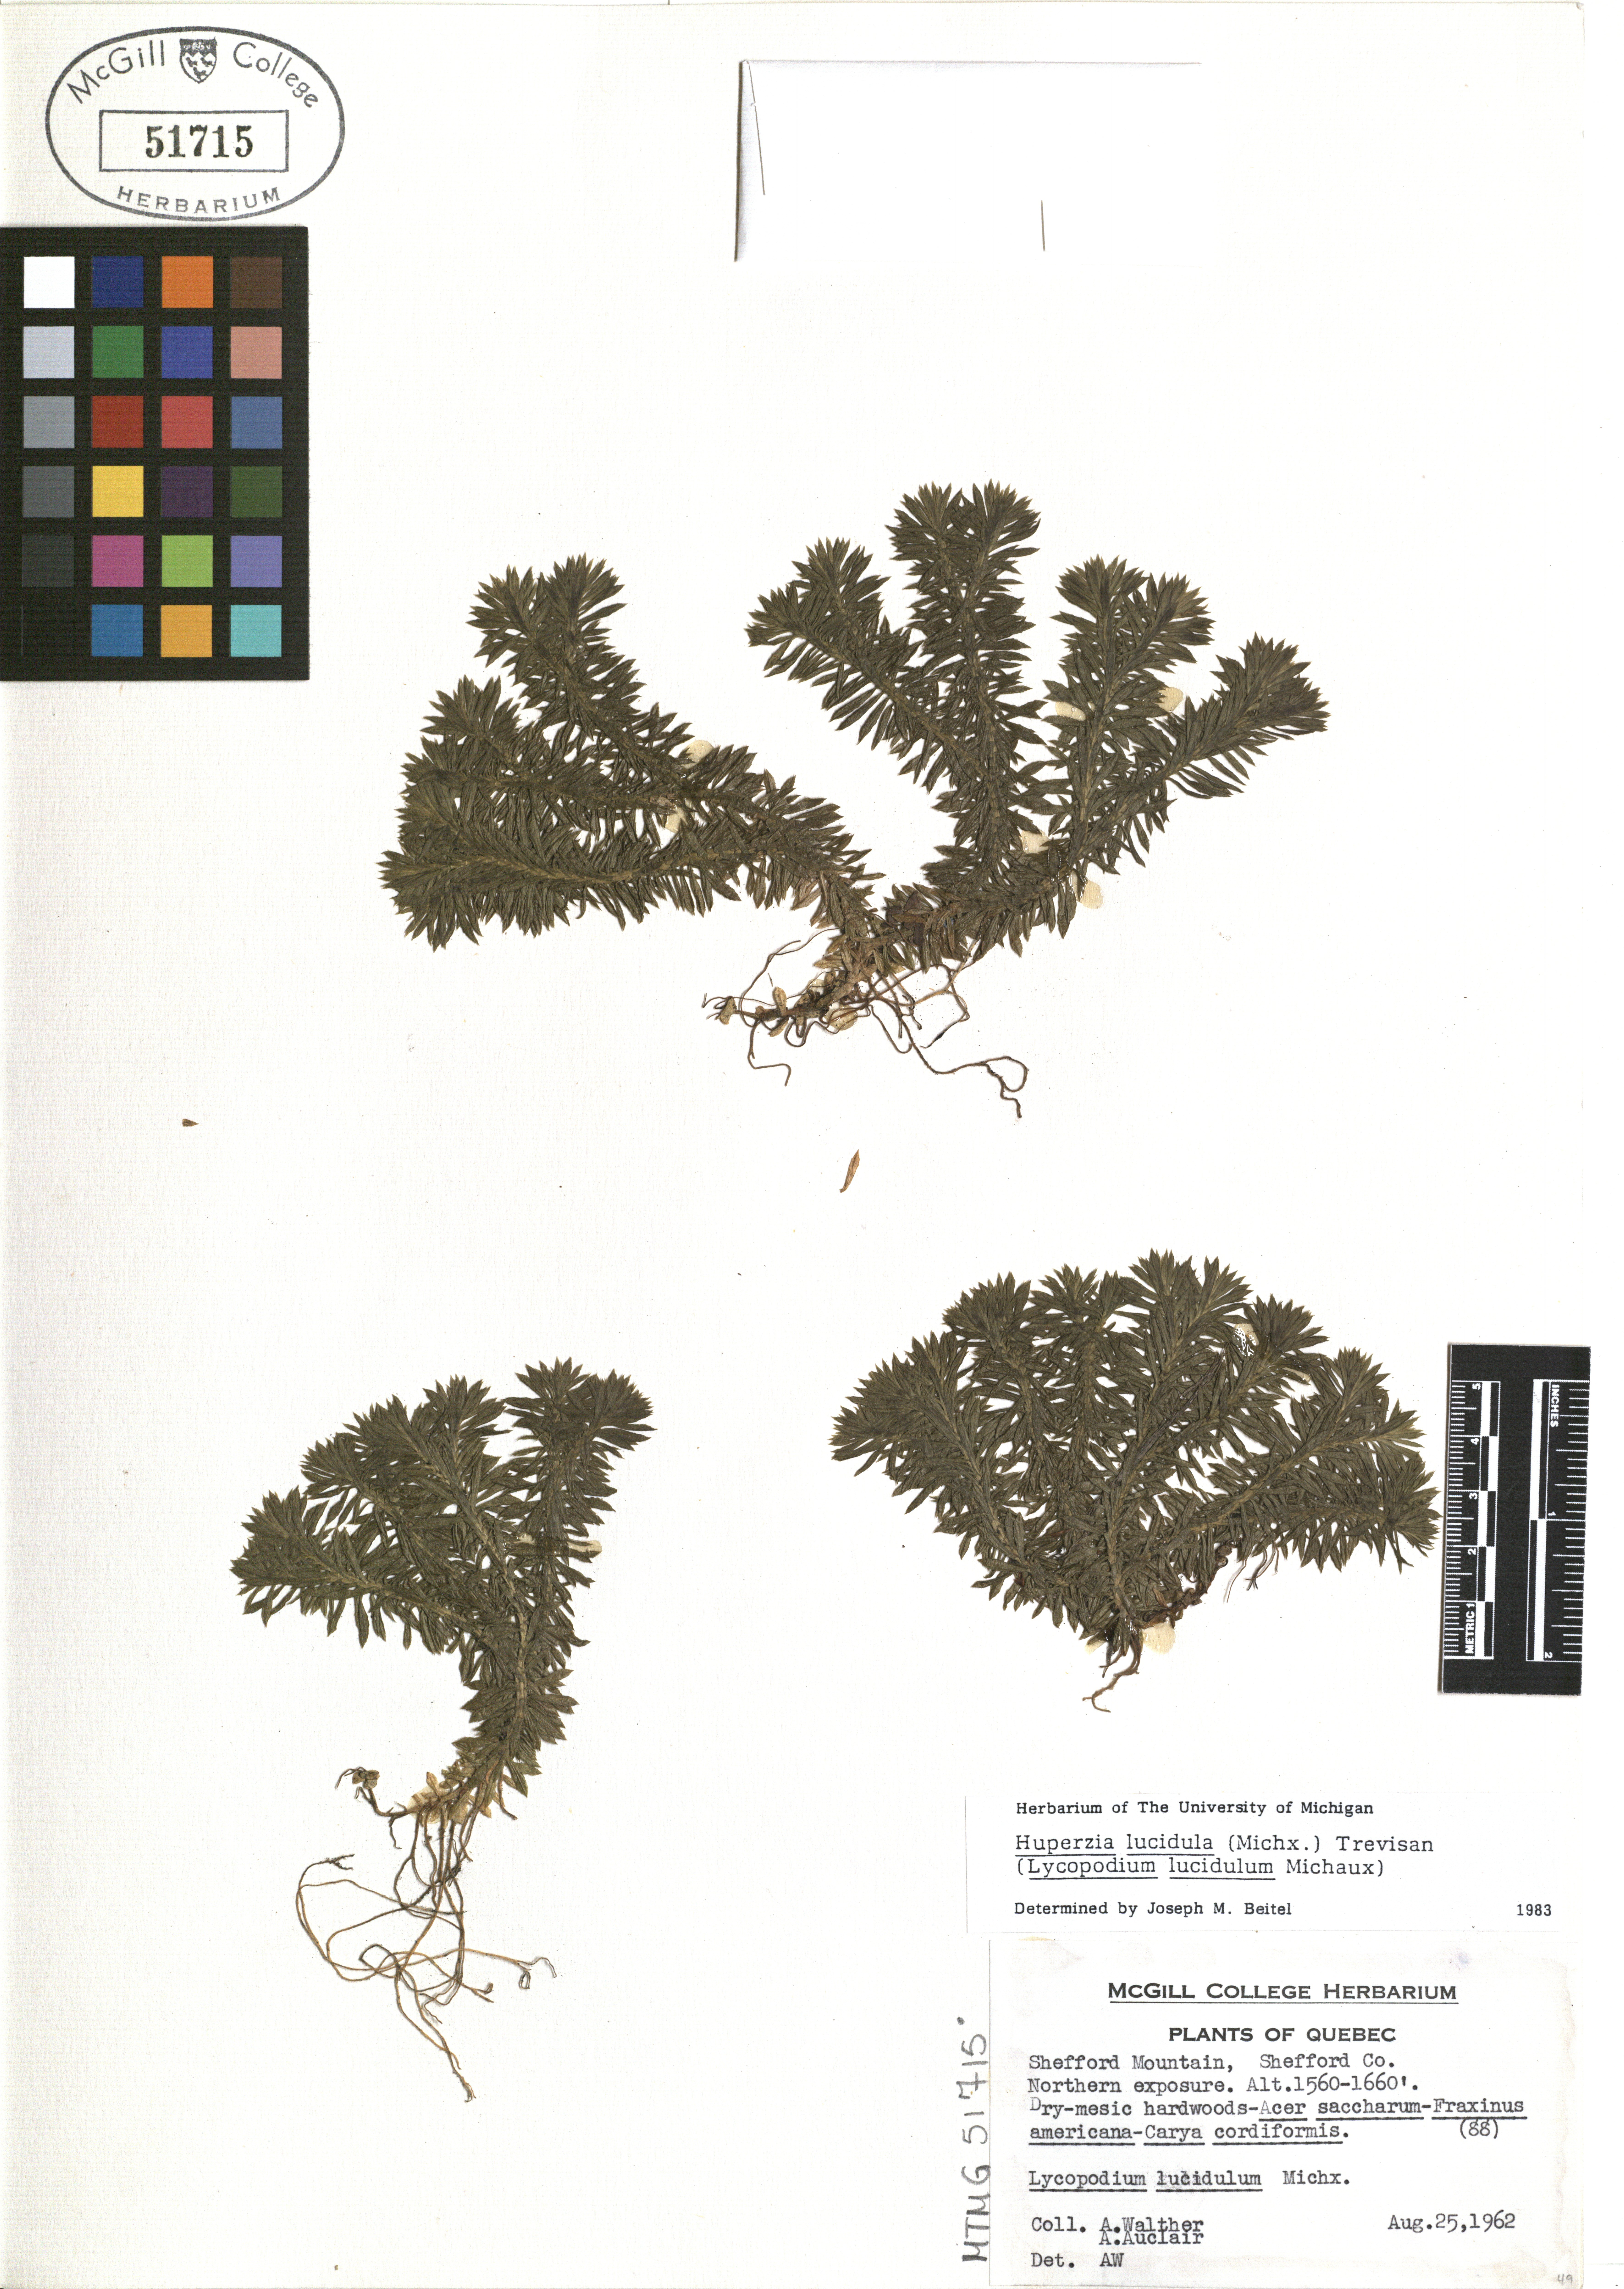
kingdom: Plantae
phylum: Tracheophyta
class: Lycopodiopsida
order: Lycopodiales
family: Lycopodiaceae
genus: Huperzia
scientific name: Huperzia lucidula
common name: Shining clubmoss
